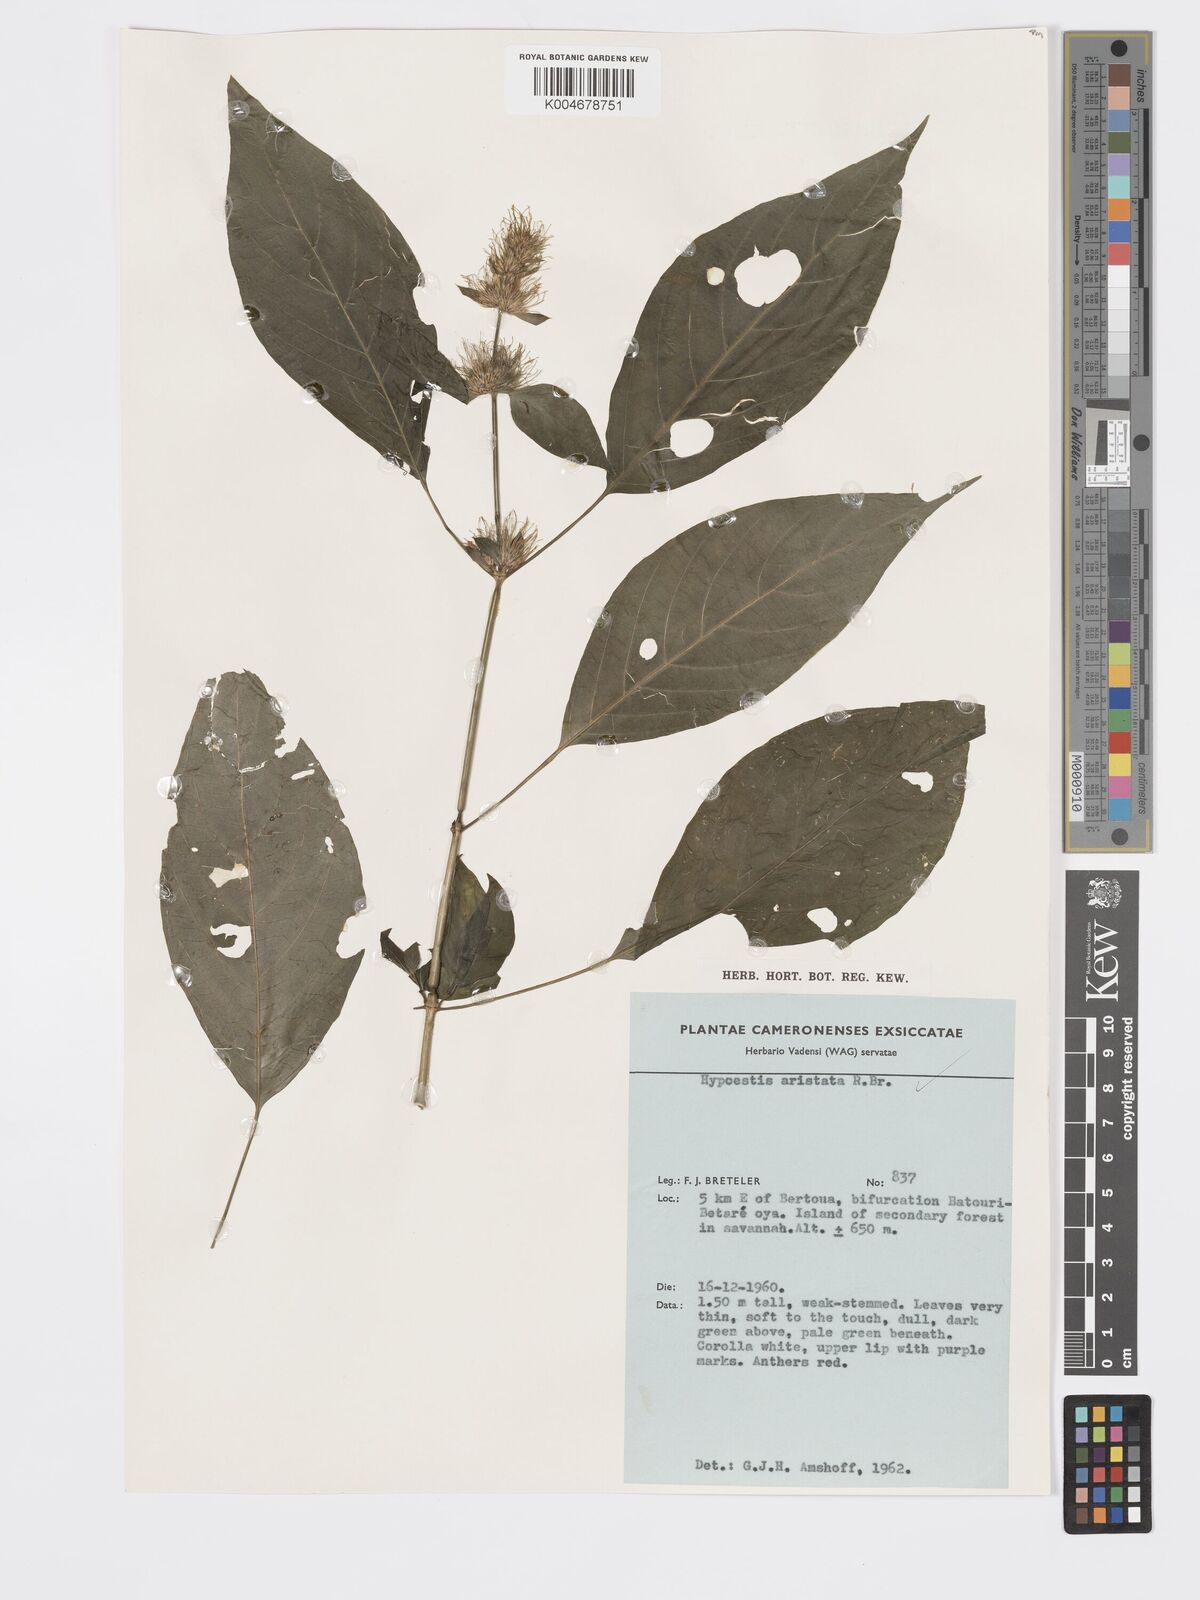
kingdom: Plantae
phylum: Tracheophyta
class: Magnoliopsida
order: Lamiales
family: Acanthaceae
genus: Hypoestes
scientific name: Hypoestes aristata
